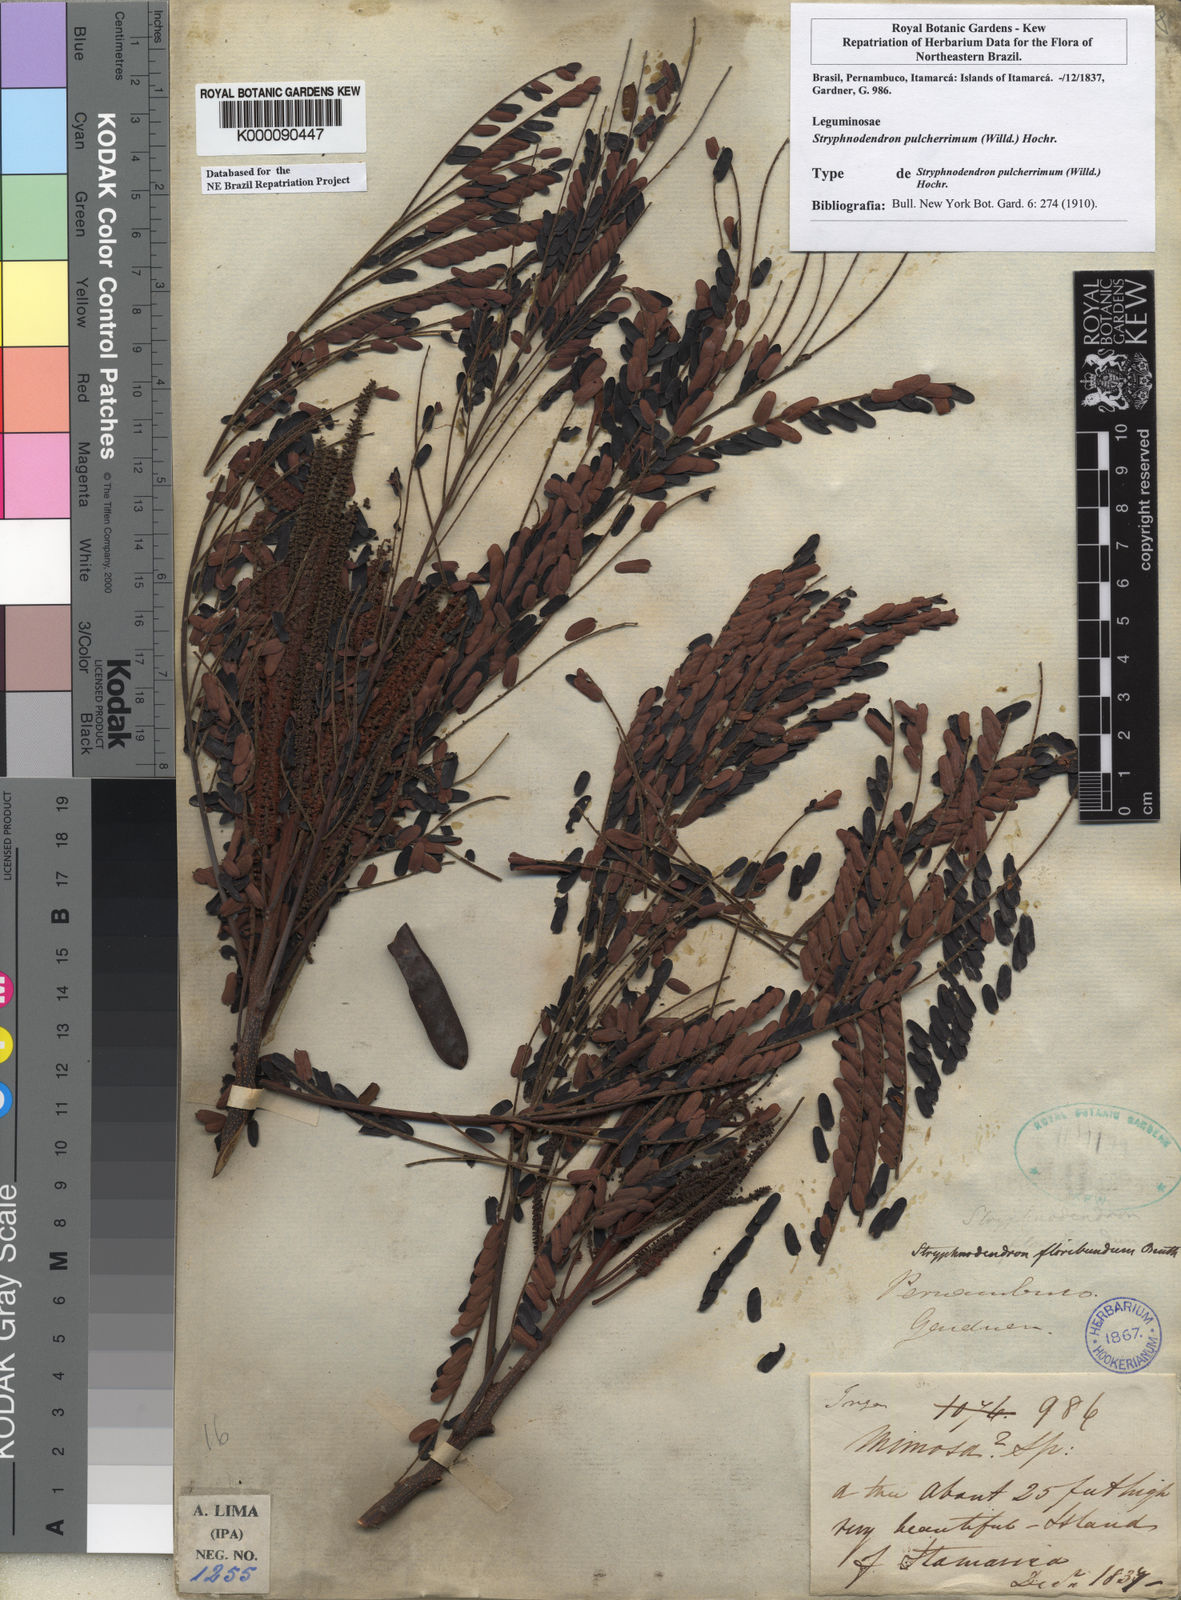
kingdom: Plantae
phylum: Tracheophyta
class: Magnoliopsida
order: Fabales
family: Fabaceae
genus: Stryphnodendron
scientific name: Stryphnodendron pulcherrimum
